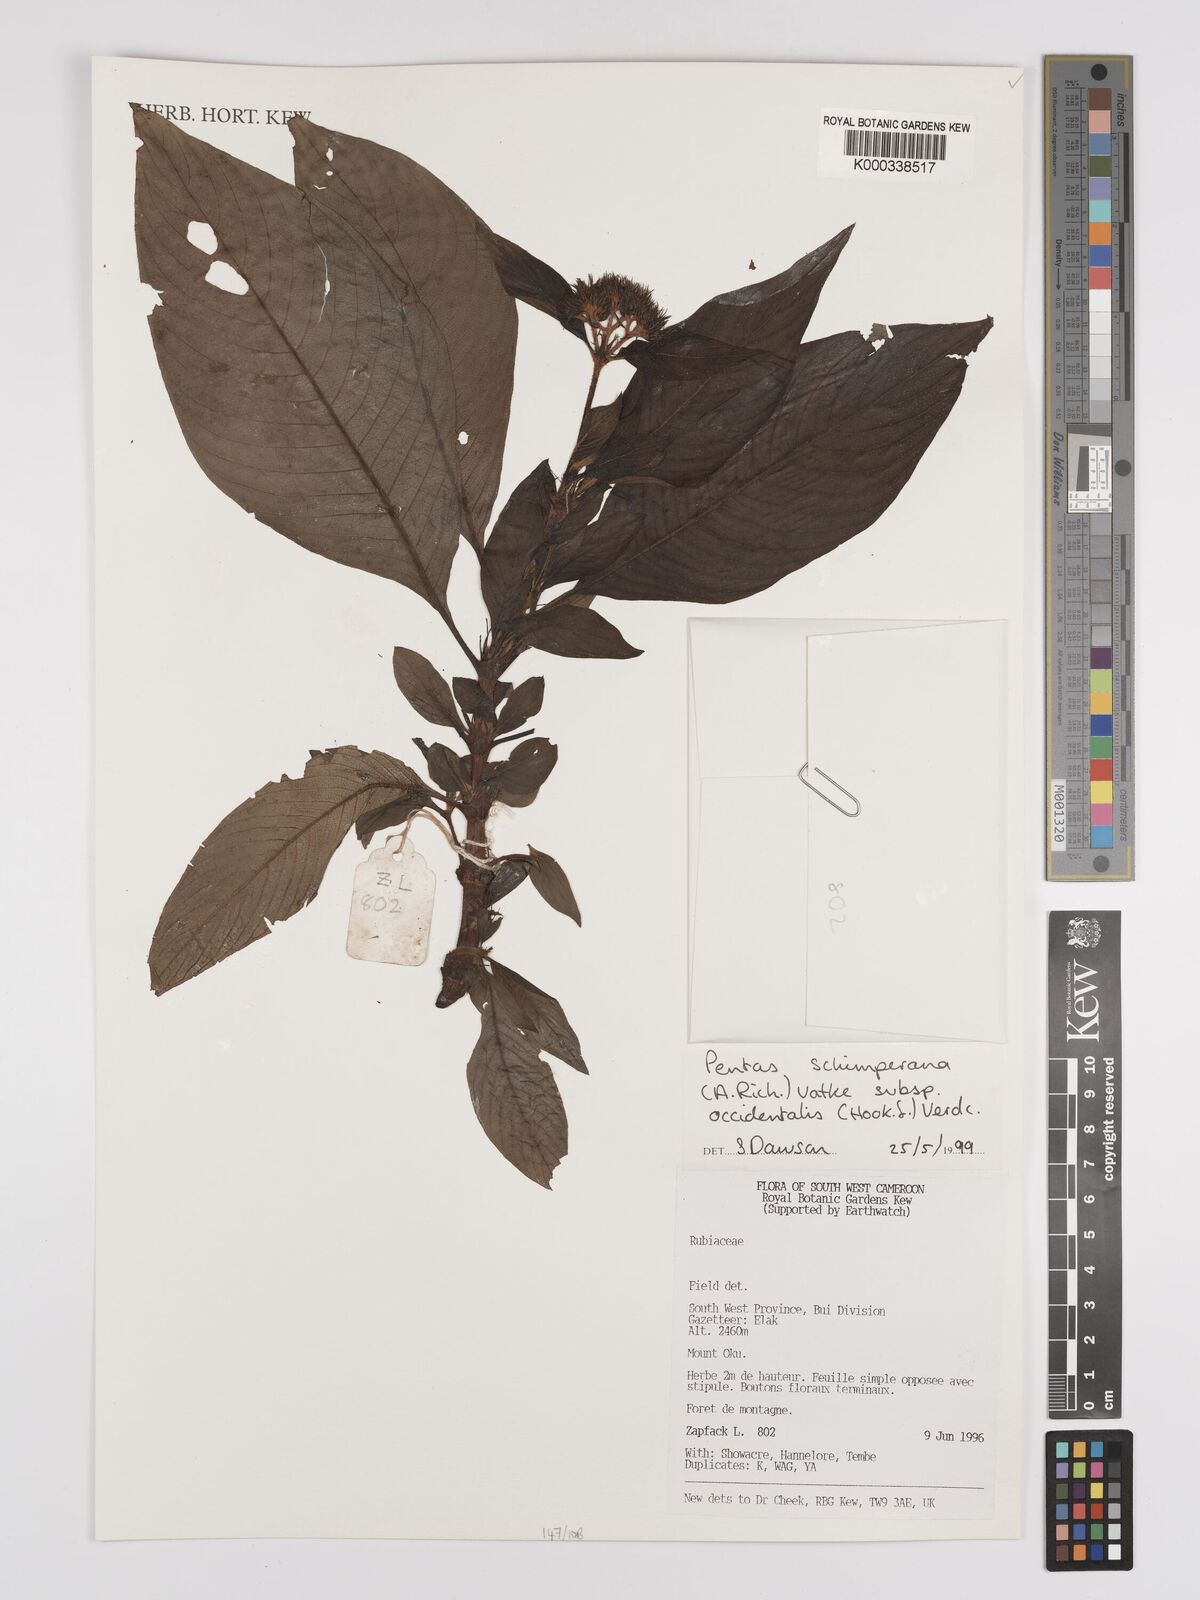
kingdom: Plantae
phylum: Tracheophyta
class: Magnoliopsida
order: Gentianales
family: Rubiaceae
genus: Phyllopentas
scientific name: Phyllopentas schimperi
